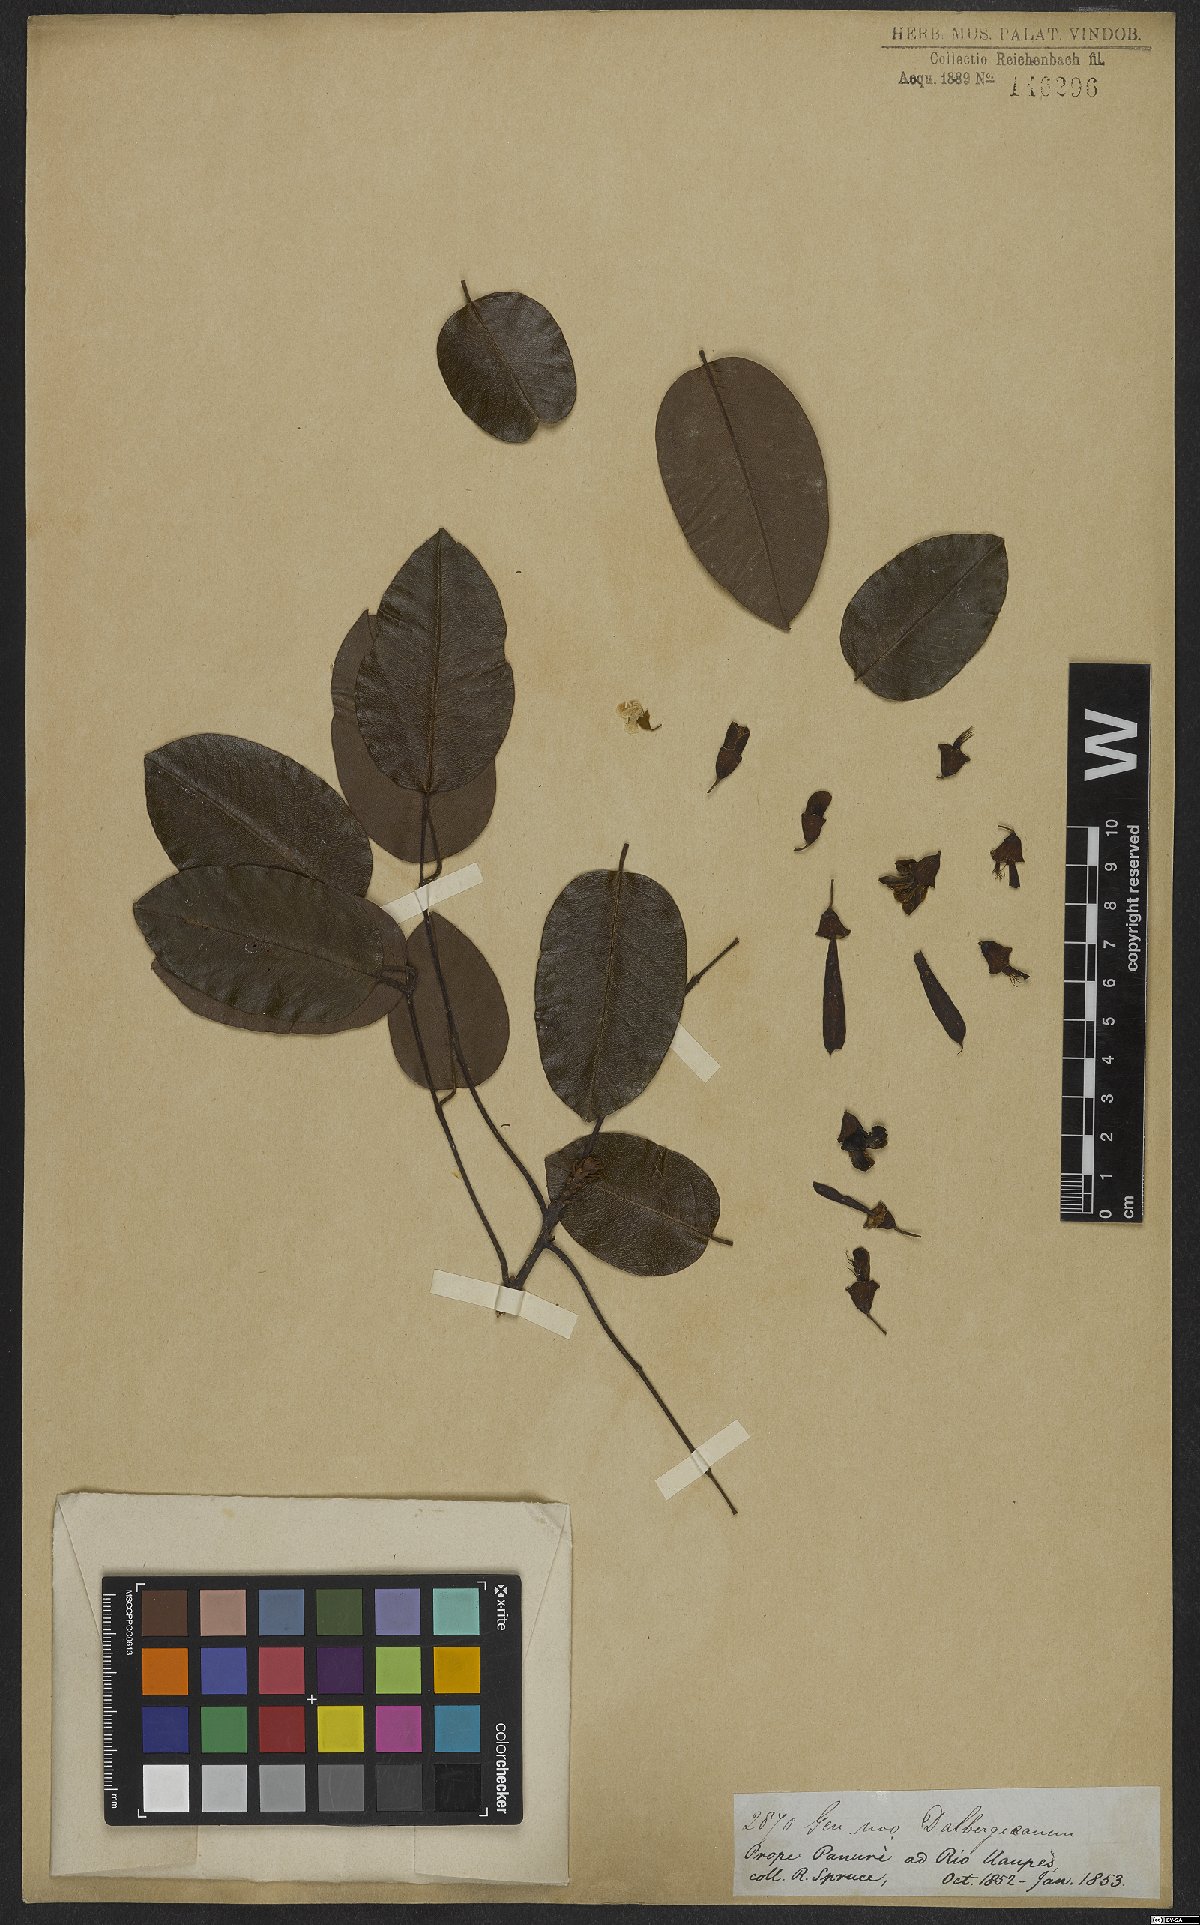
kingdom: Plantae
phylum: Tracheophyta
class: Magnoliopsida
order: Fabales
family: Fabaceae
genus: Monopteryx
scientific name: Monopteryx
